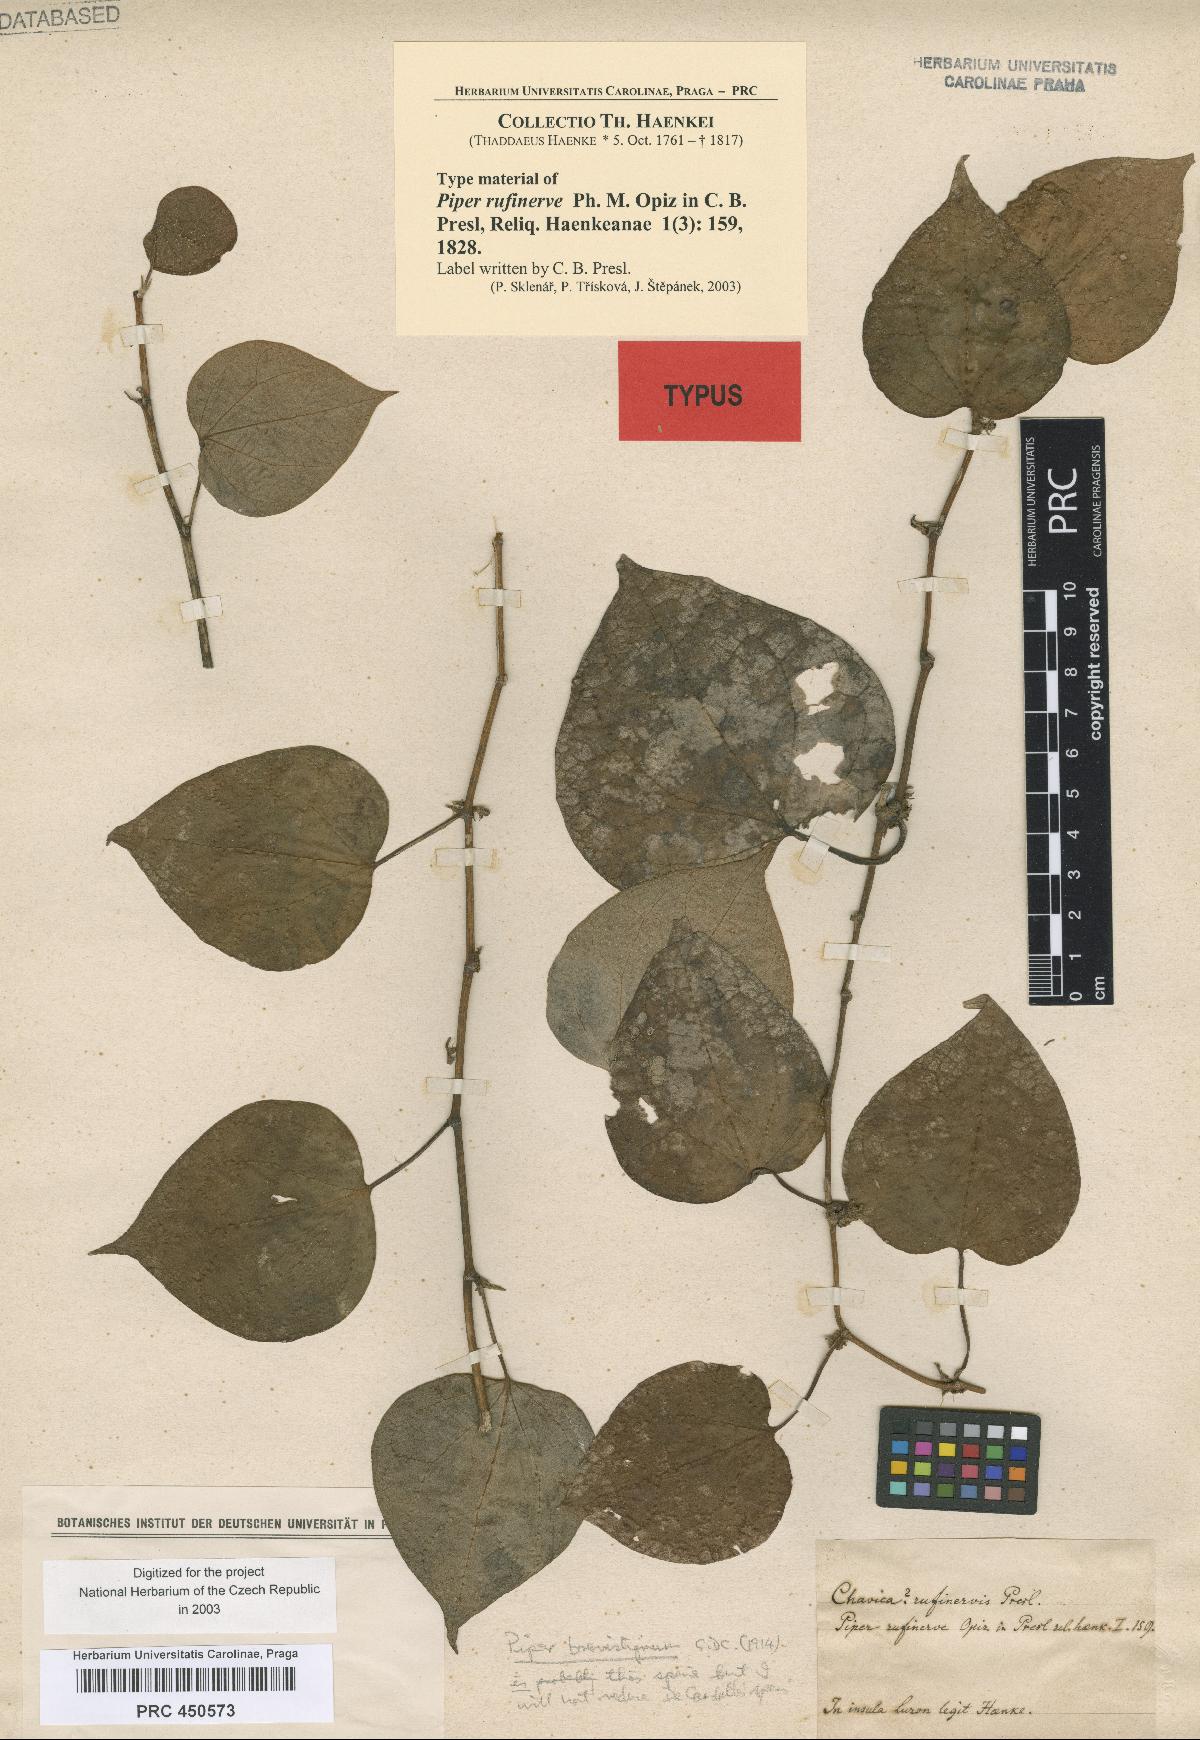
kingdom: Plantae
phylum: Tracheophyta
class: Magnoliopsida
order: Piperales
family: Piperaceae
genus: Piper
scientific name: Piper rufinerve
